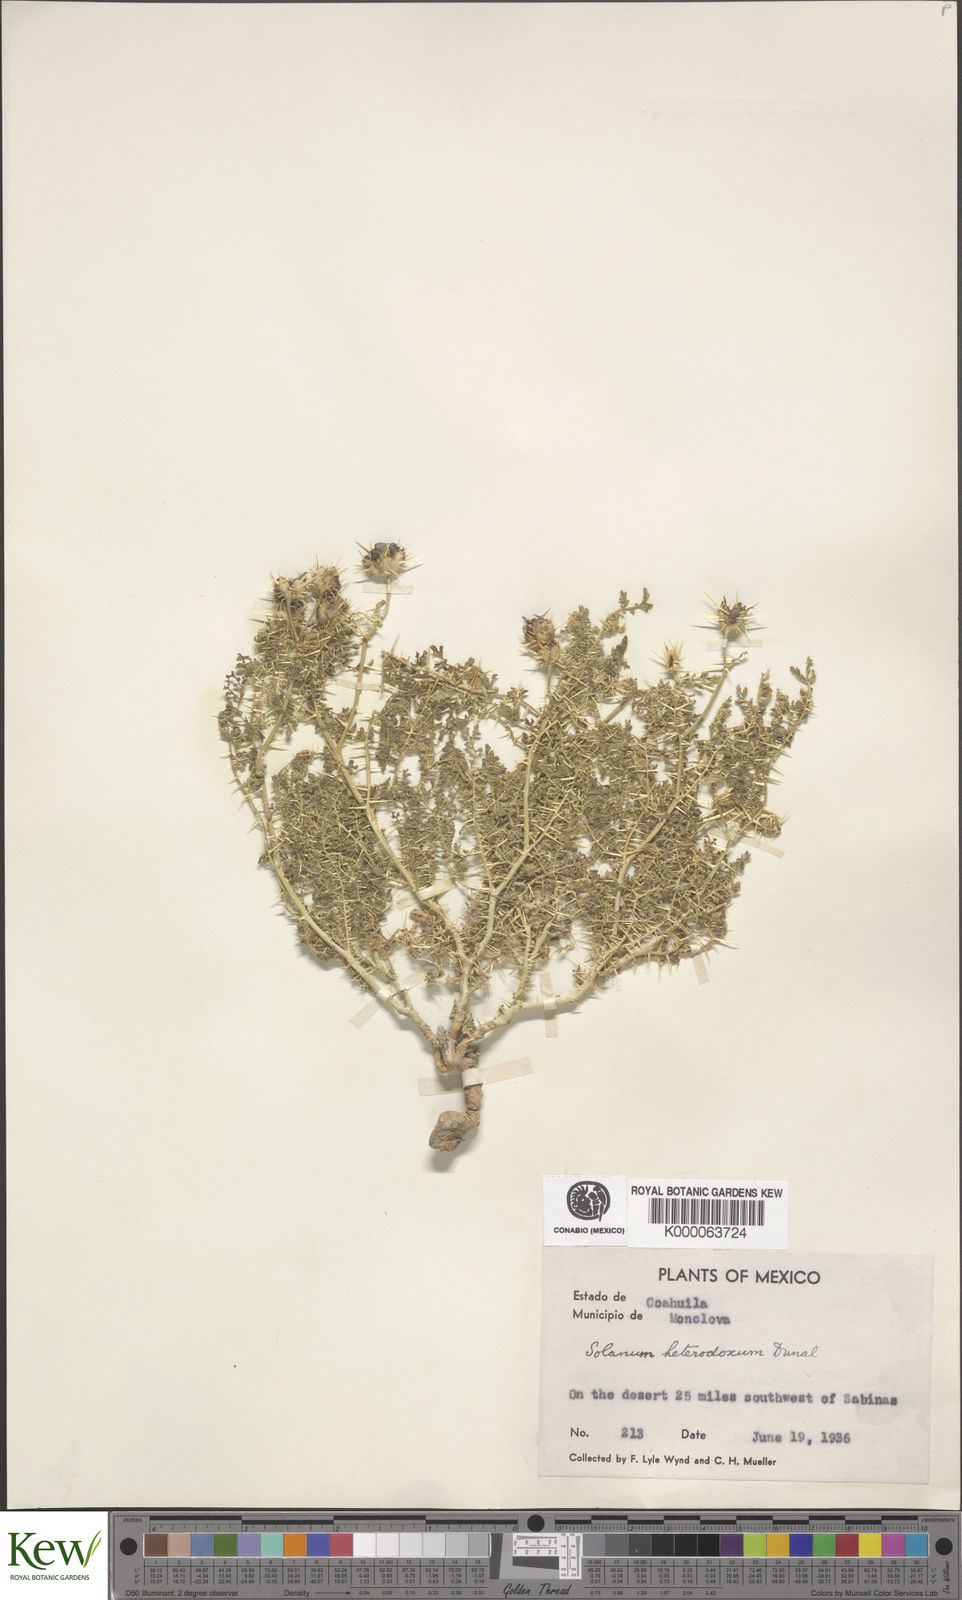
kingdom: Plantae
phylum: Tracheophyta
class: Magnoliopsida
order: Solanales
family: Solanaceae
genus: Solanum
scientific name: Solanum heterodoxum
